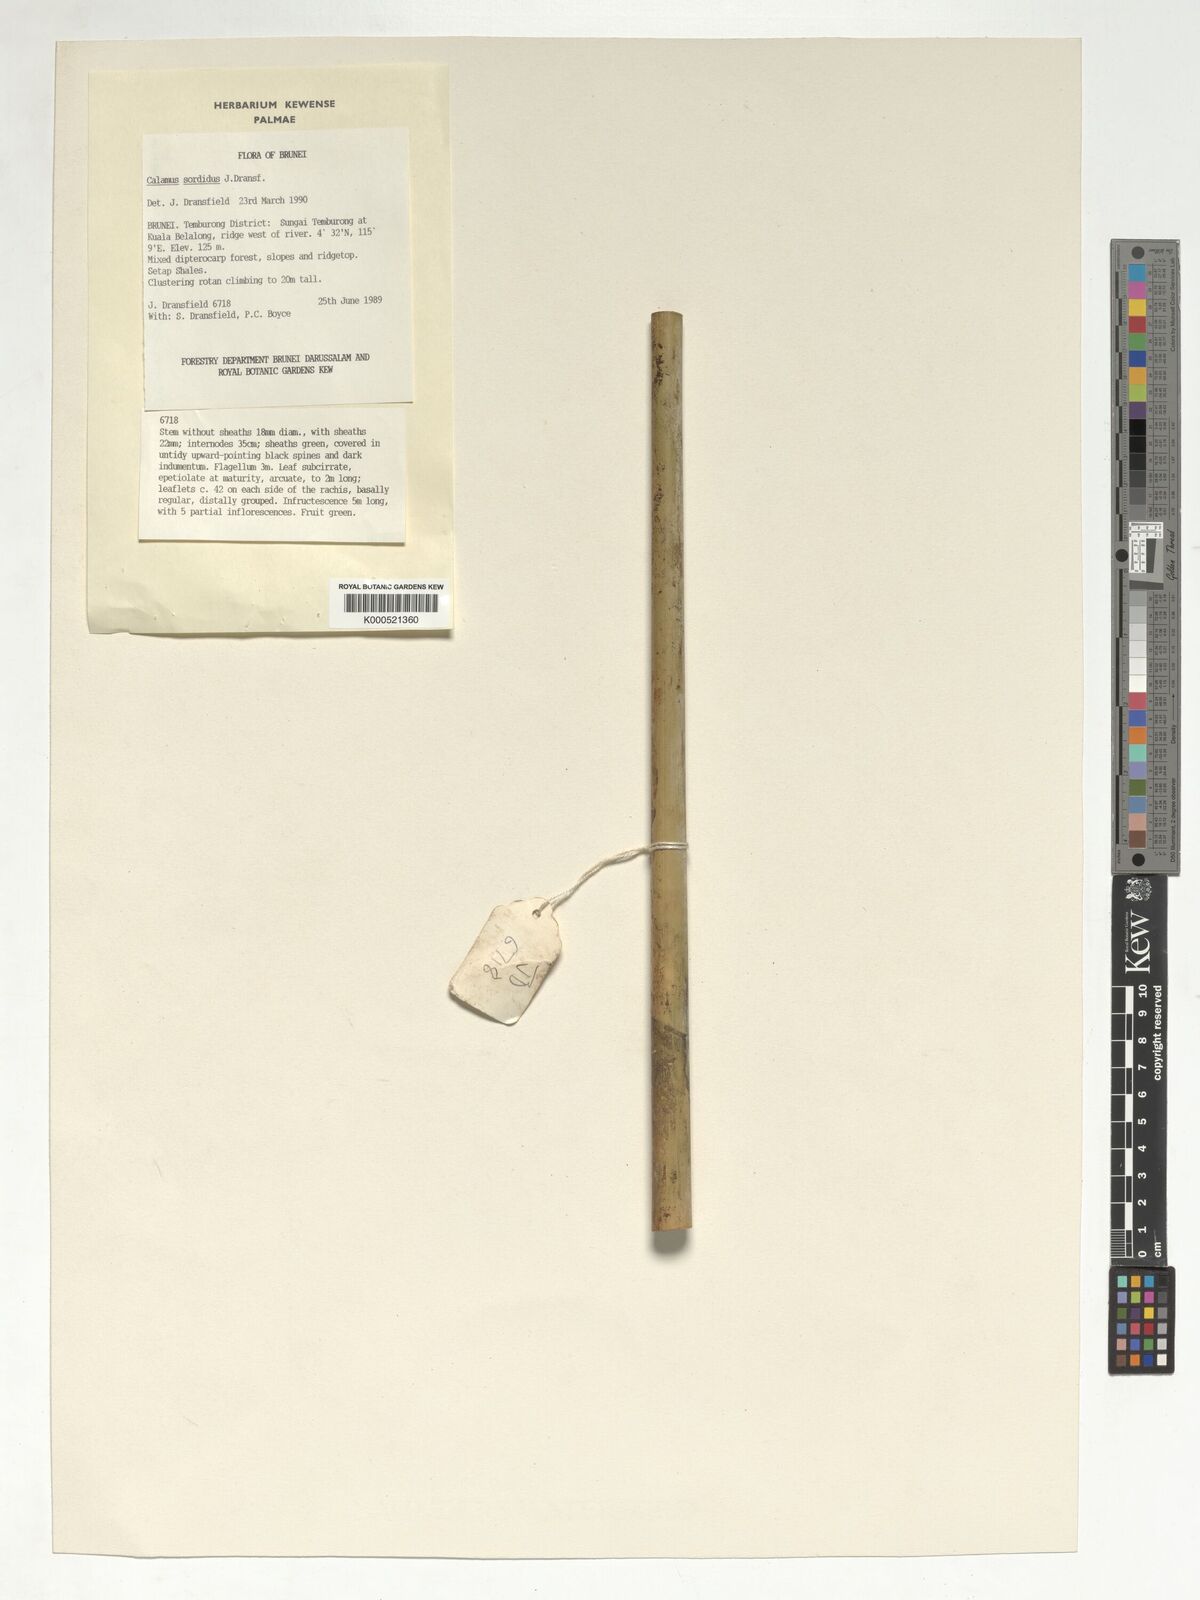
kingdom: Plantae
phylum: Tracheophyta
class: Liliopsida
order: Arecales
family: Arecaceae
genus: Calamus
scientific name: Calamus sordidus
